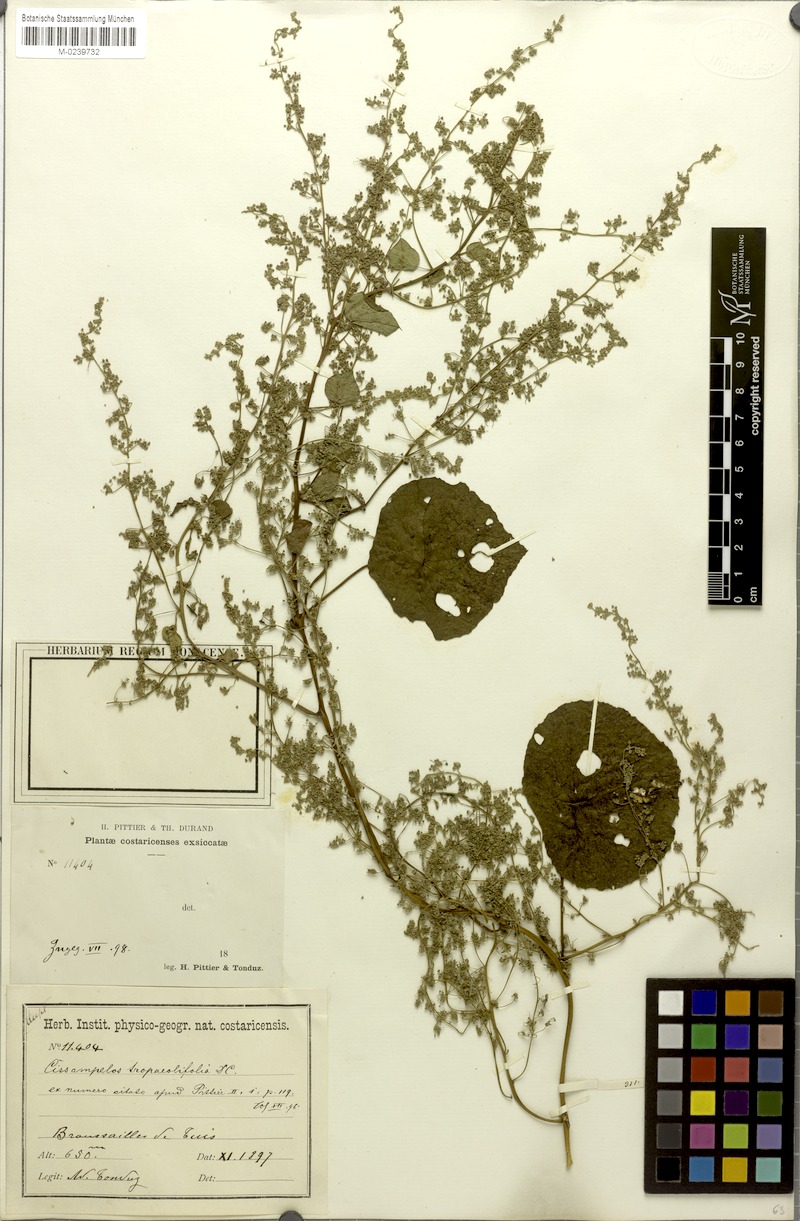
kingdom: Plantae
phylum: Tracheophyta
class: Magnoliopsida
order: Ranunculales
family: Menispermaceae
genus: Cissampelos
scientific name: Cissampelos tropaeolifolia
